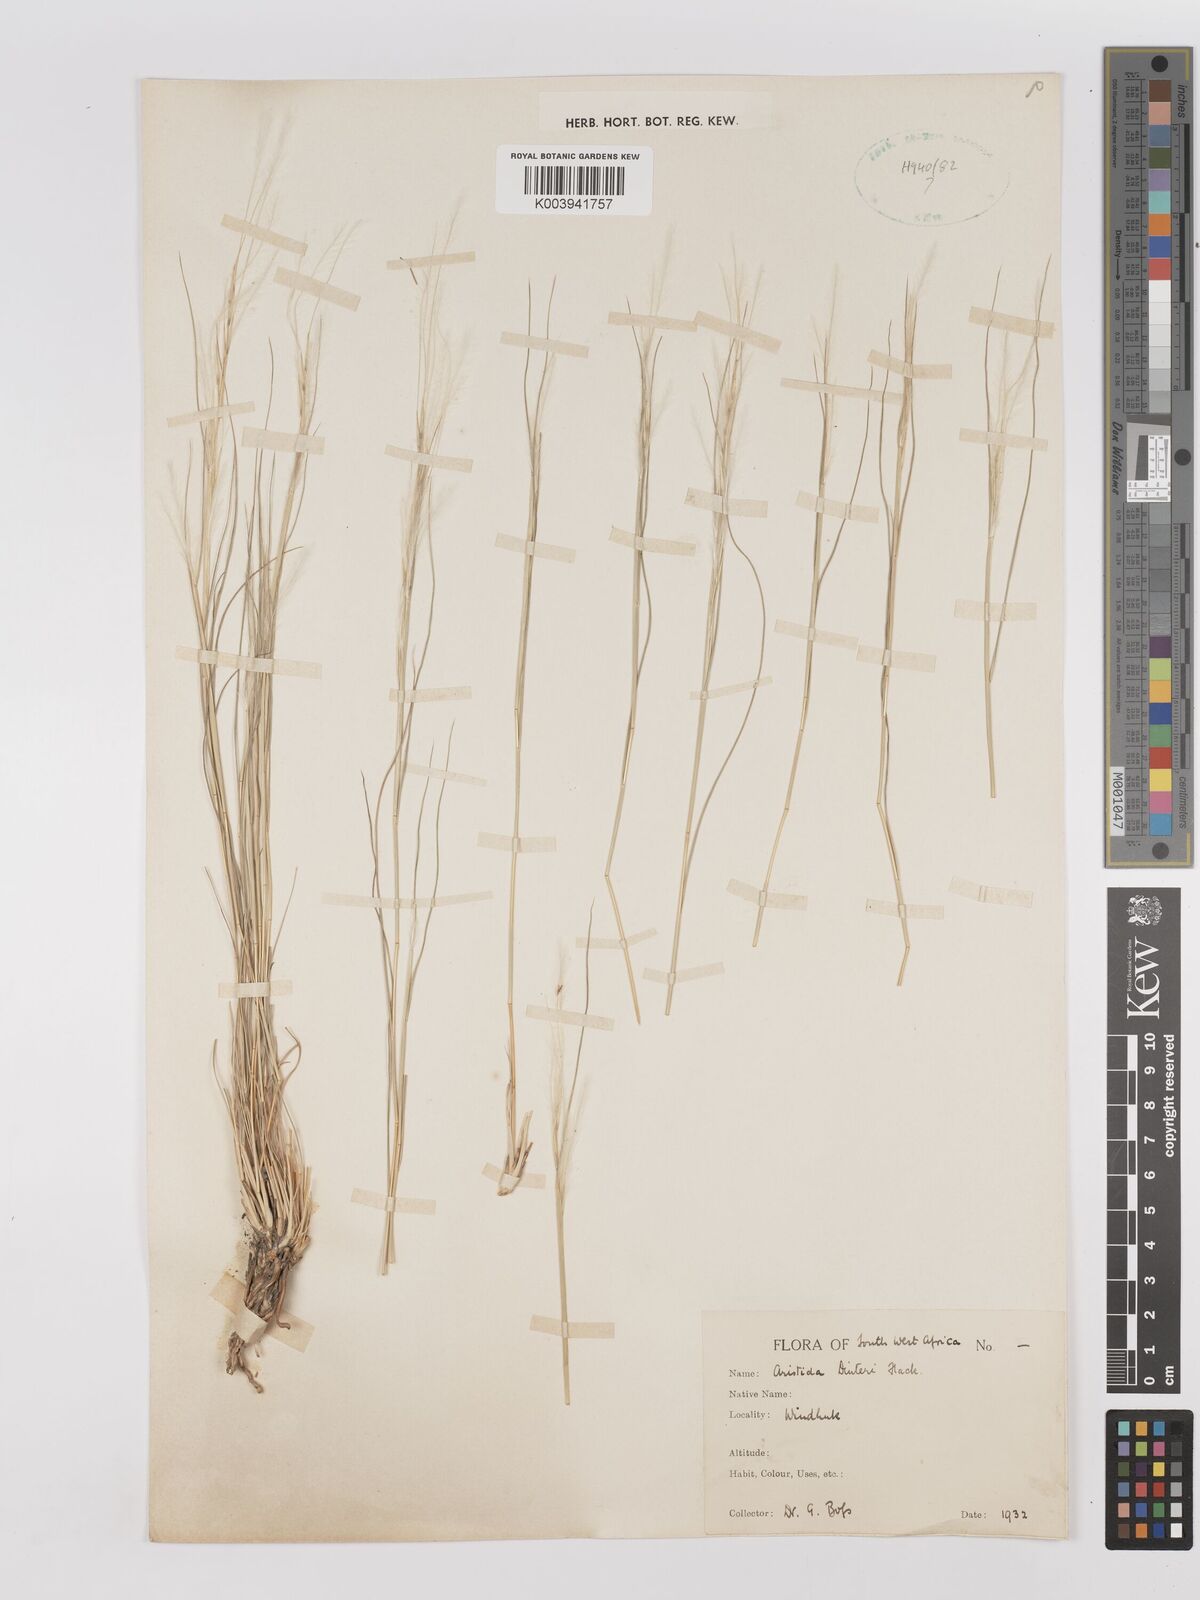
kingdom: Plantae
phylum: Tracheophyta
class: Liliopsida
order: Poales
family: Poaceae
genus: Stipagrostis
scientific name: Stipagrostis dinteri
